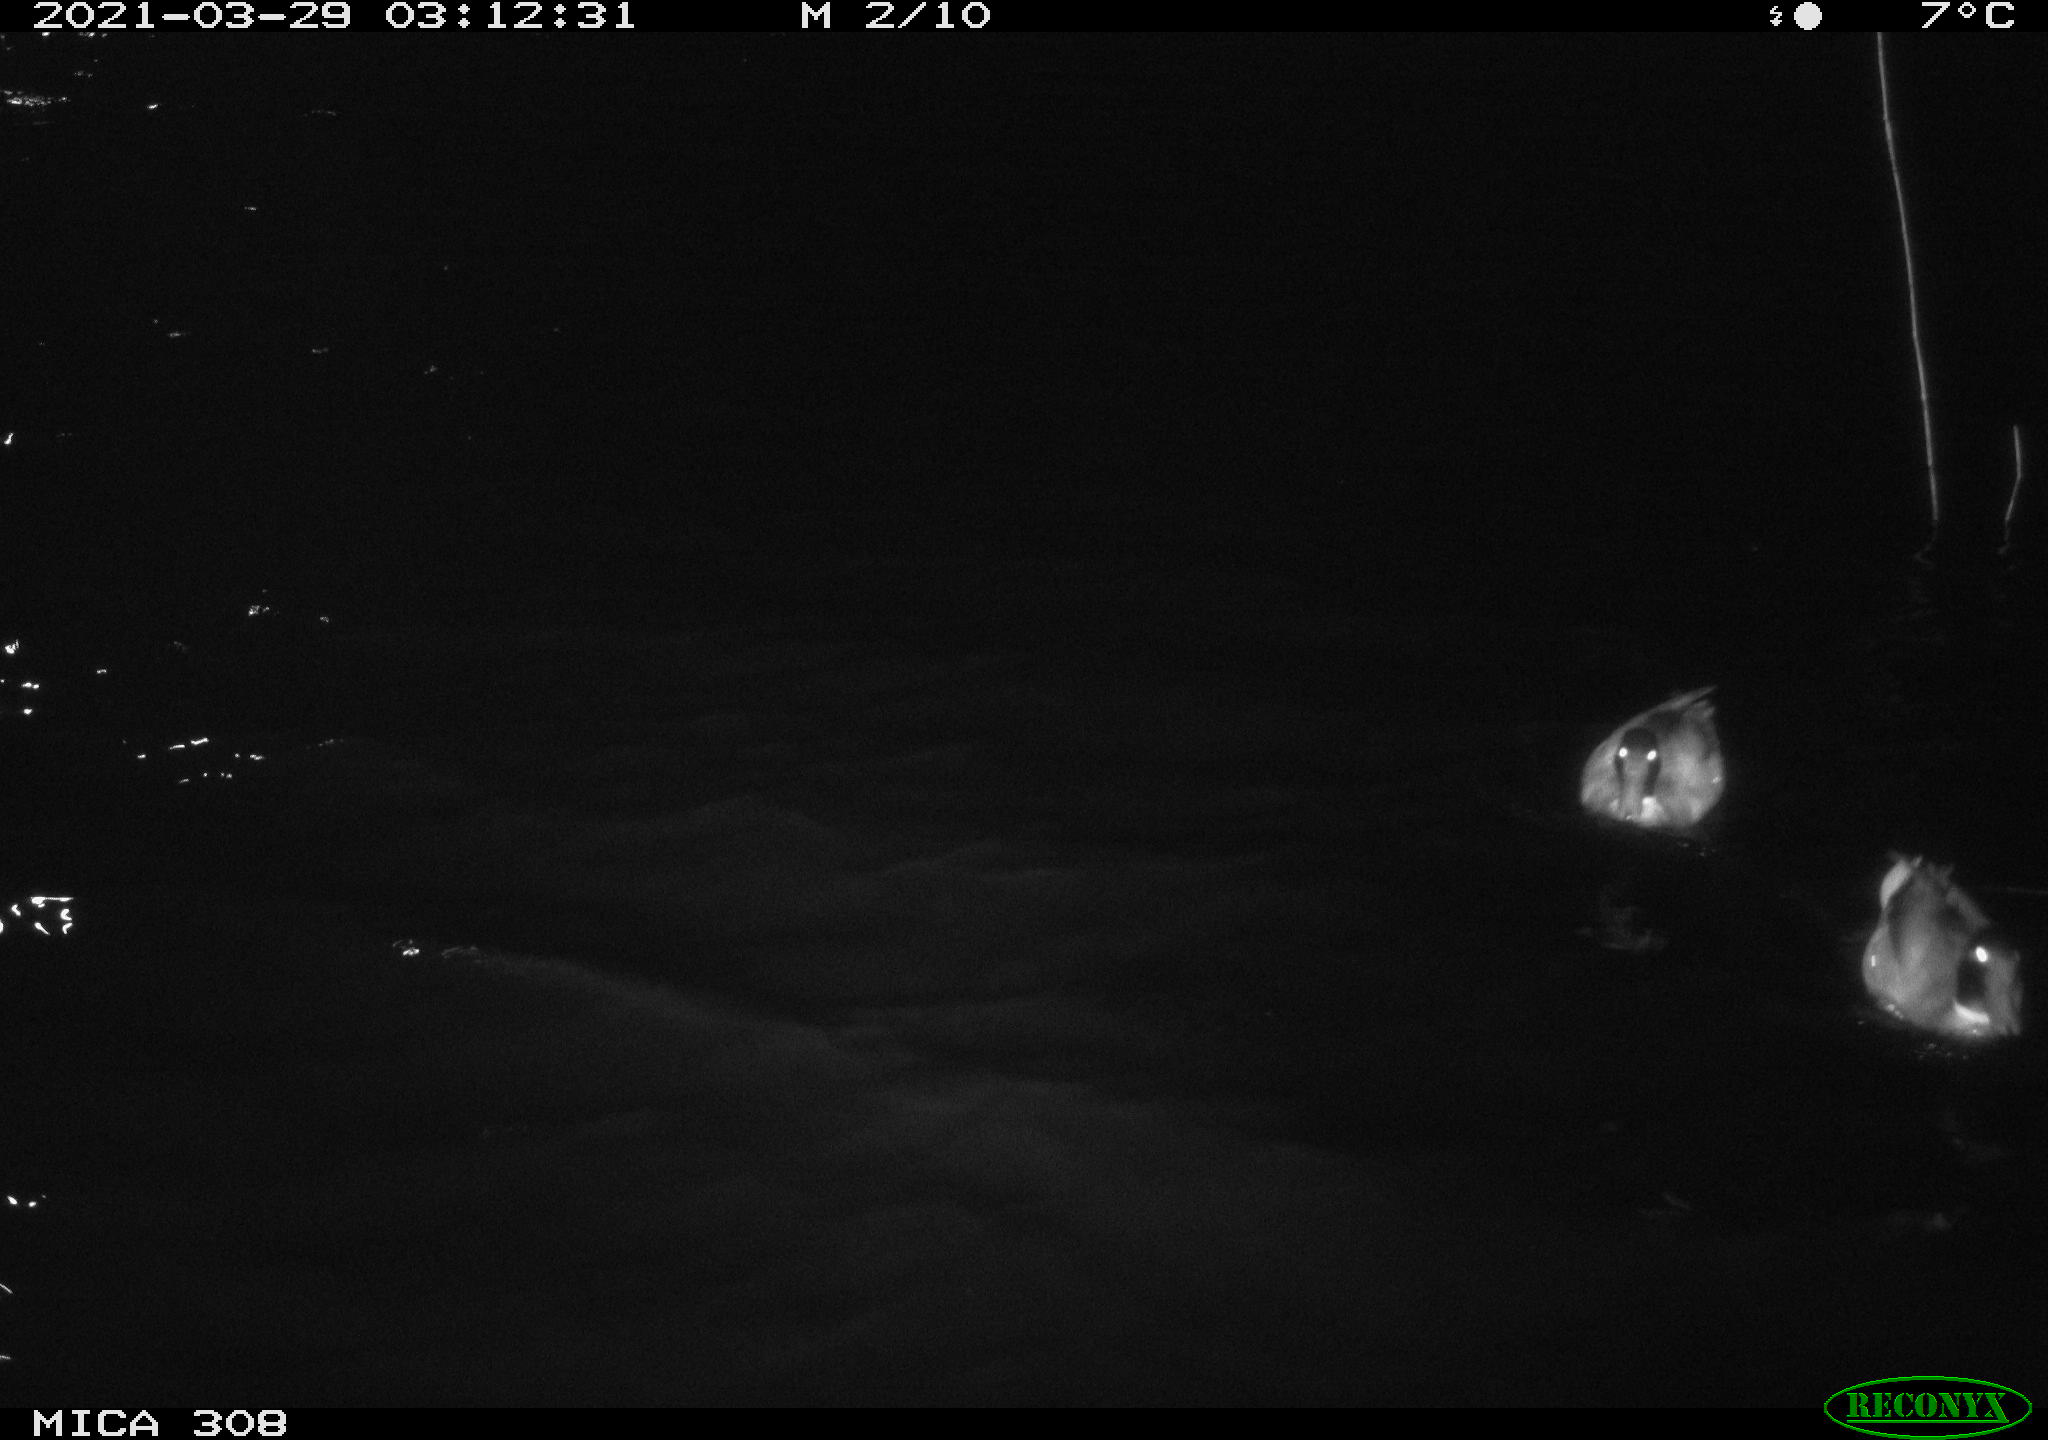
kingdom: Animalia
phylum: Chordata
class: Aves
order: Anseriformes
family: Anatidae
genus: Anas
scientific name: Anas platyrhynchos
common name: Mallard
